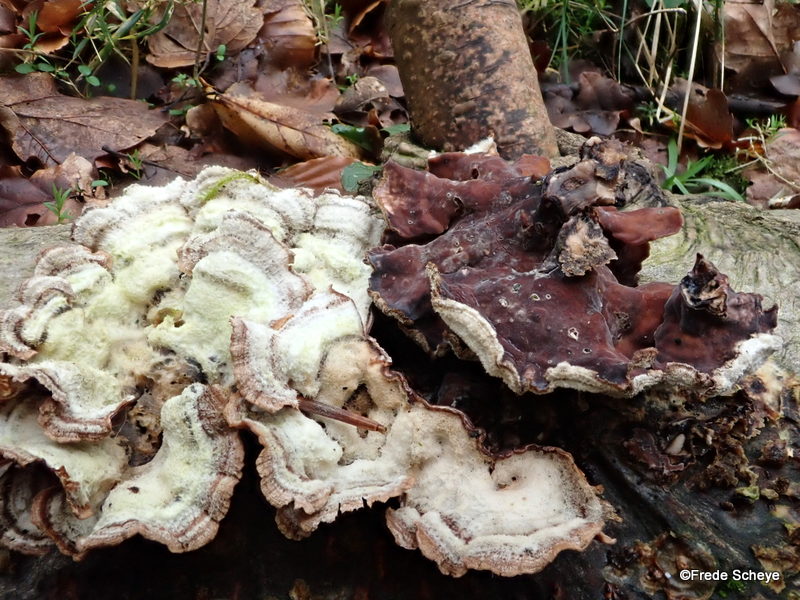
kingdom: Fungi
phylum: Basidiomycota
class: Agaricomycetes
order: Agaricales
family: Cyphellaceae
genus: Chondrostereum
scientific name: Chondrostereum purpureum
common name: purpurlædersvamp
